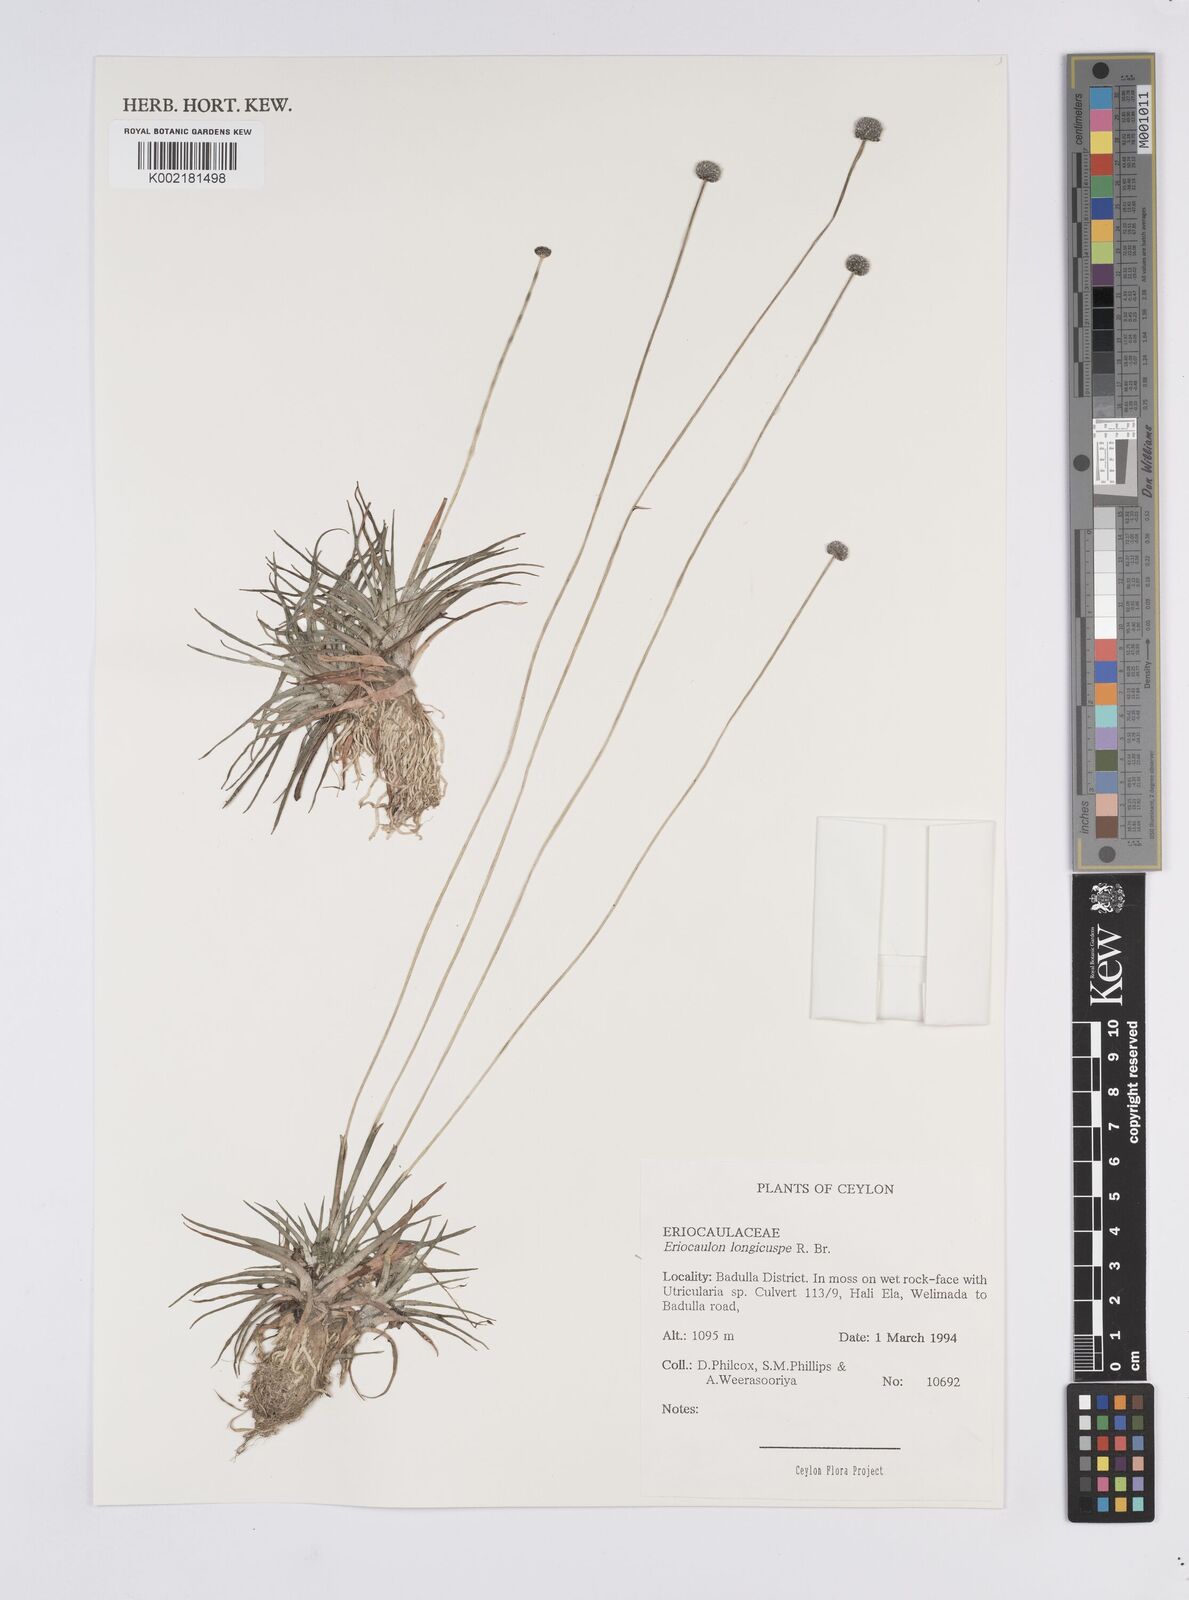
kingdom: Plantae
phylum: Tracheophyta
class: Liliopsida
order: Poales
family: Eriocaulaceae
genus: Eriocaulon
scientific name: Eriocaulon longicuspe
